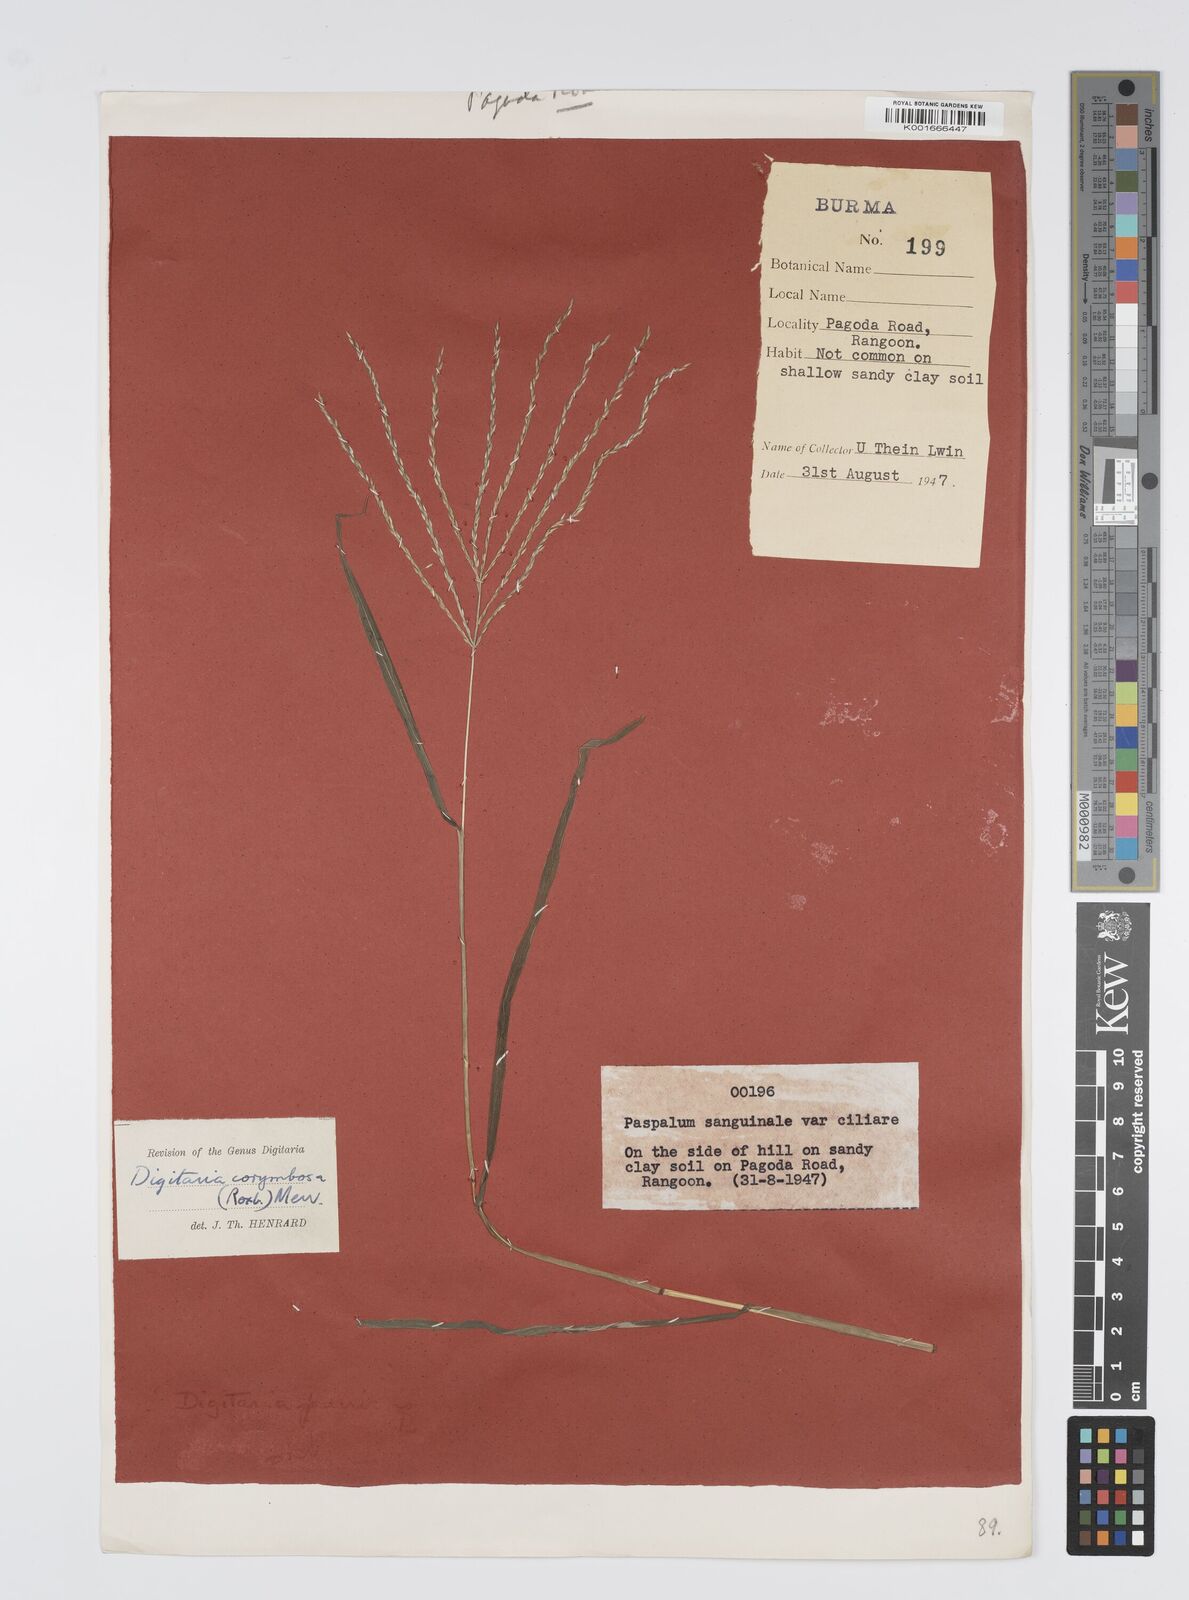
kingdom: Plantae
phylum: Tracheophyta
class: Liliopsida
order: Poales
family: Poaceae
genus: Digitaria
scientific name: Digitaria setigera
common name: East indian crabgrass
